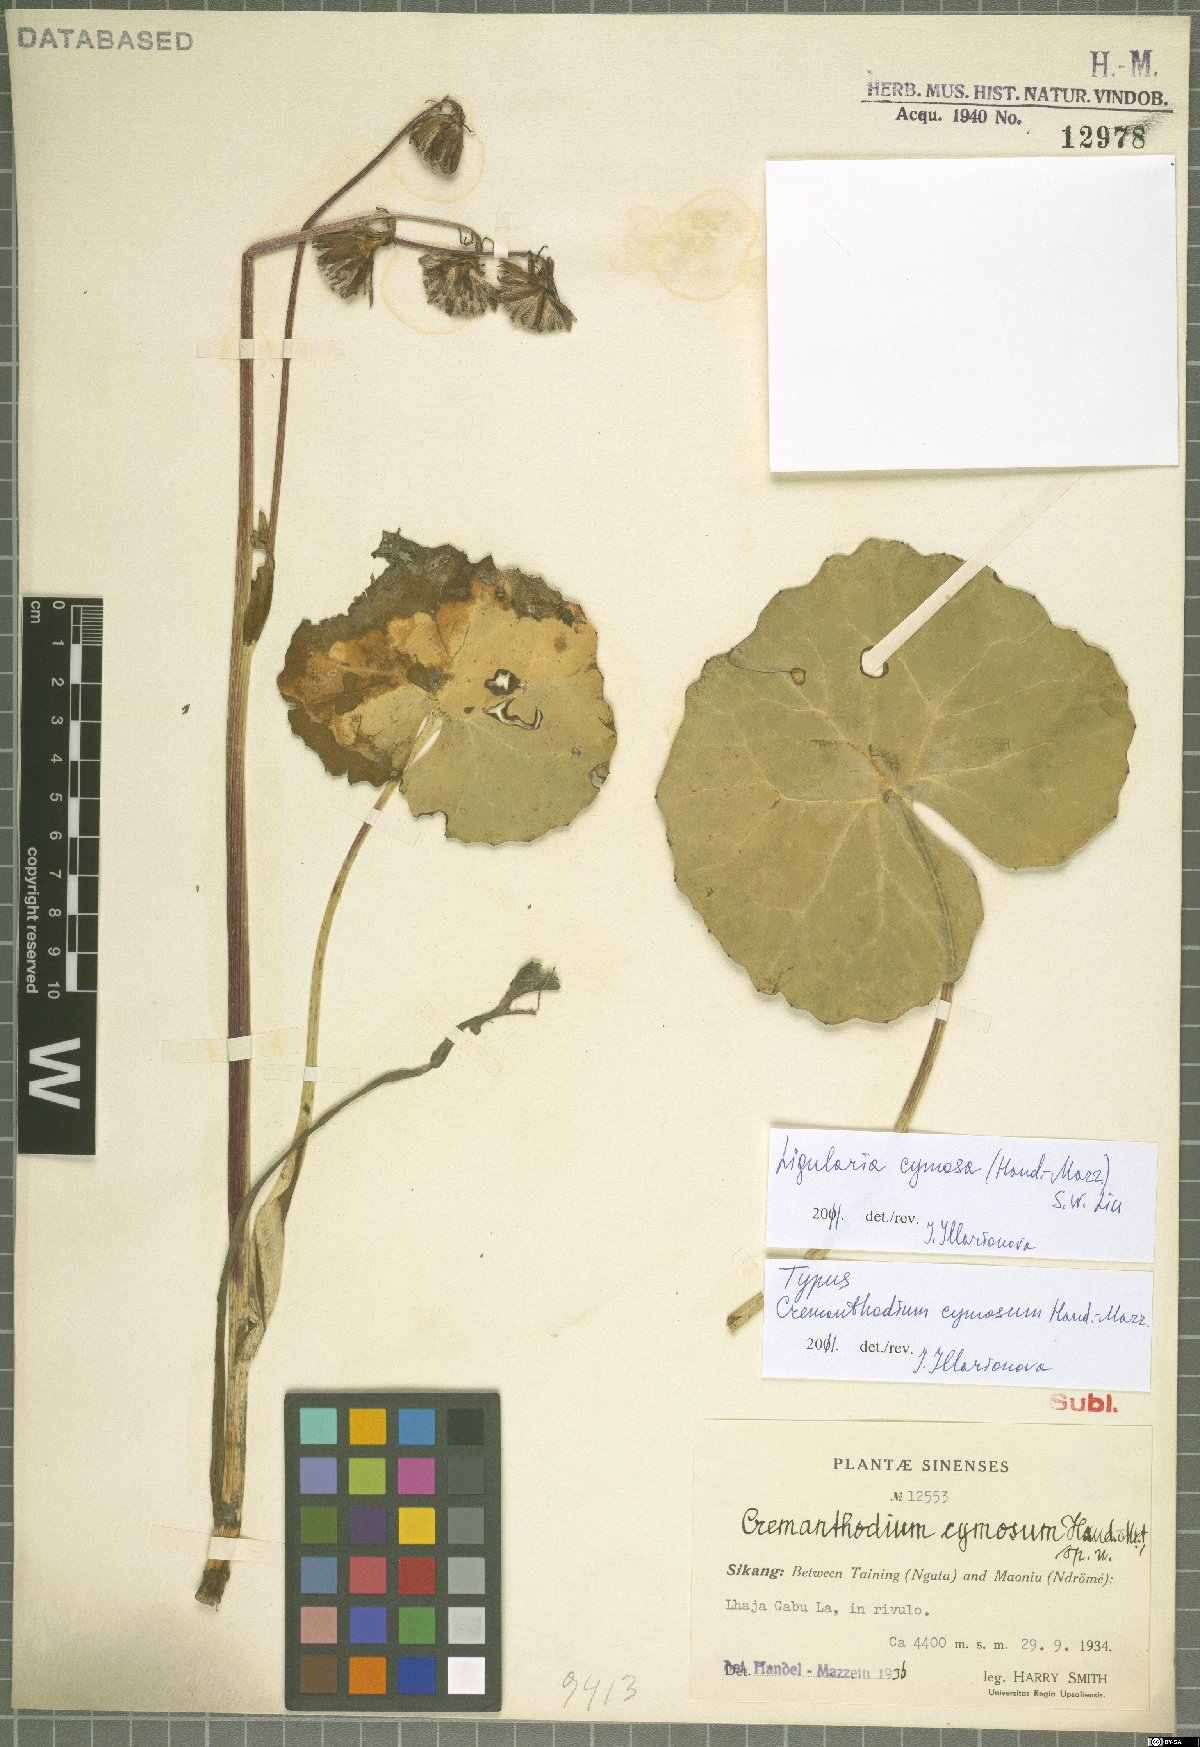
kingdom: Plantae
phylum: Tracheophyta
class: Magnoliopsida
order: Asterales
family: Asteraceae
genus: Ligularia
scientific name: Ligularia cymosa
